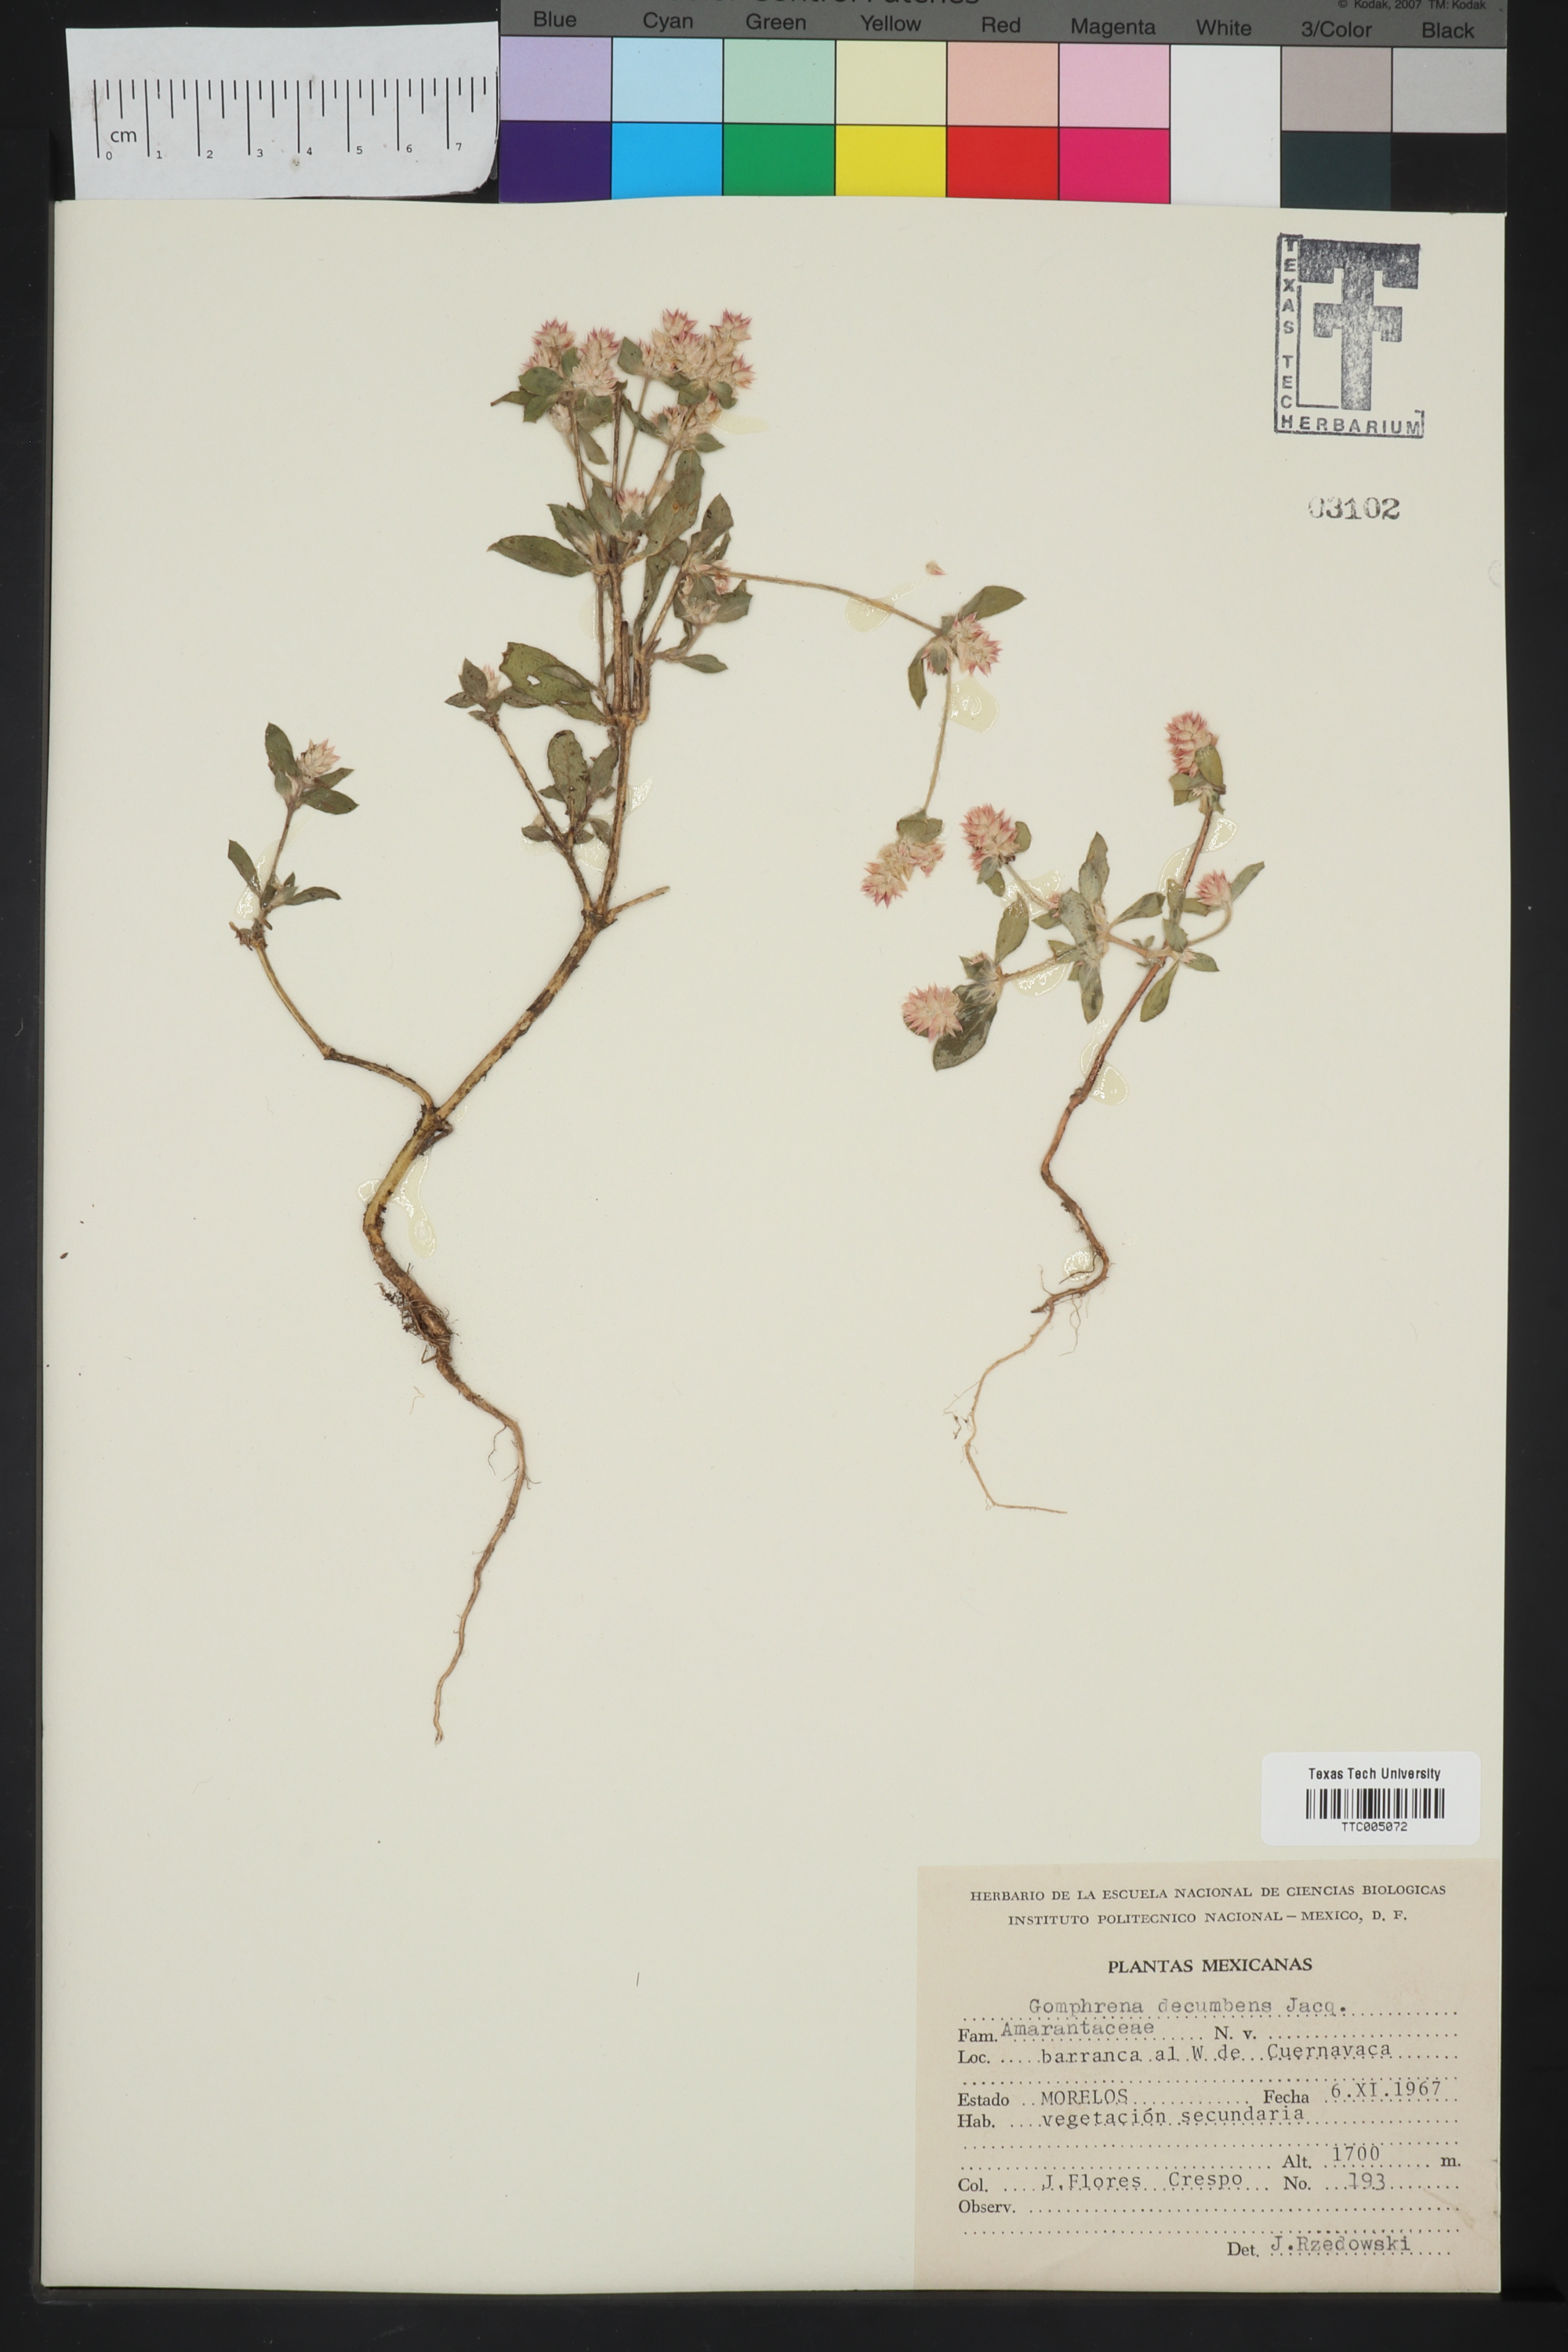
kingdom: Plantae
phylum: Tracheophyta
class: Magnoliopsida
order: Caryophyllales
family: Amaranthaceae
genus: Gomphrena
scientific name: Gomphrena serrata
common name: Arrasa con todo
